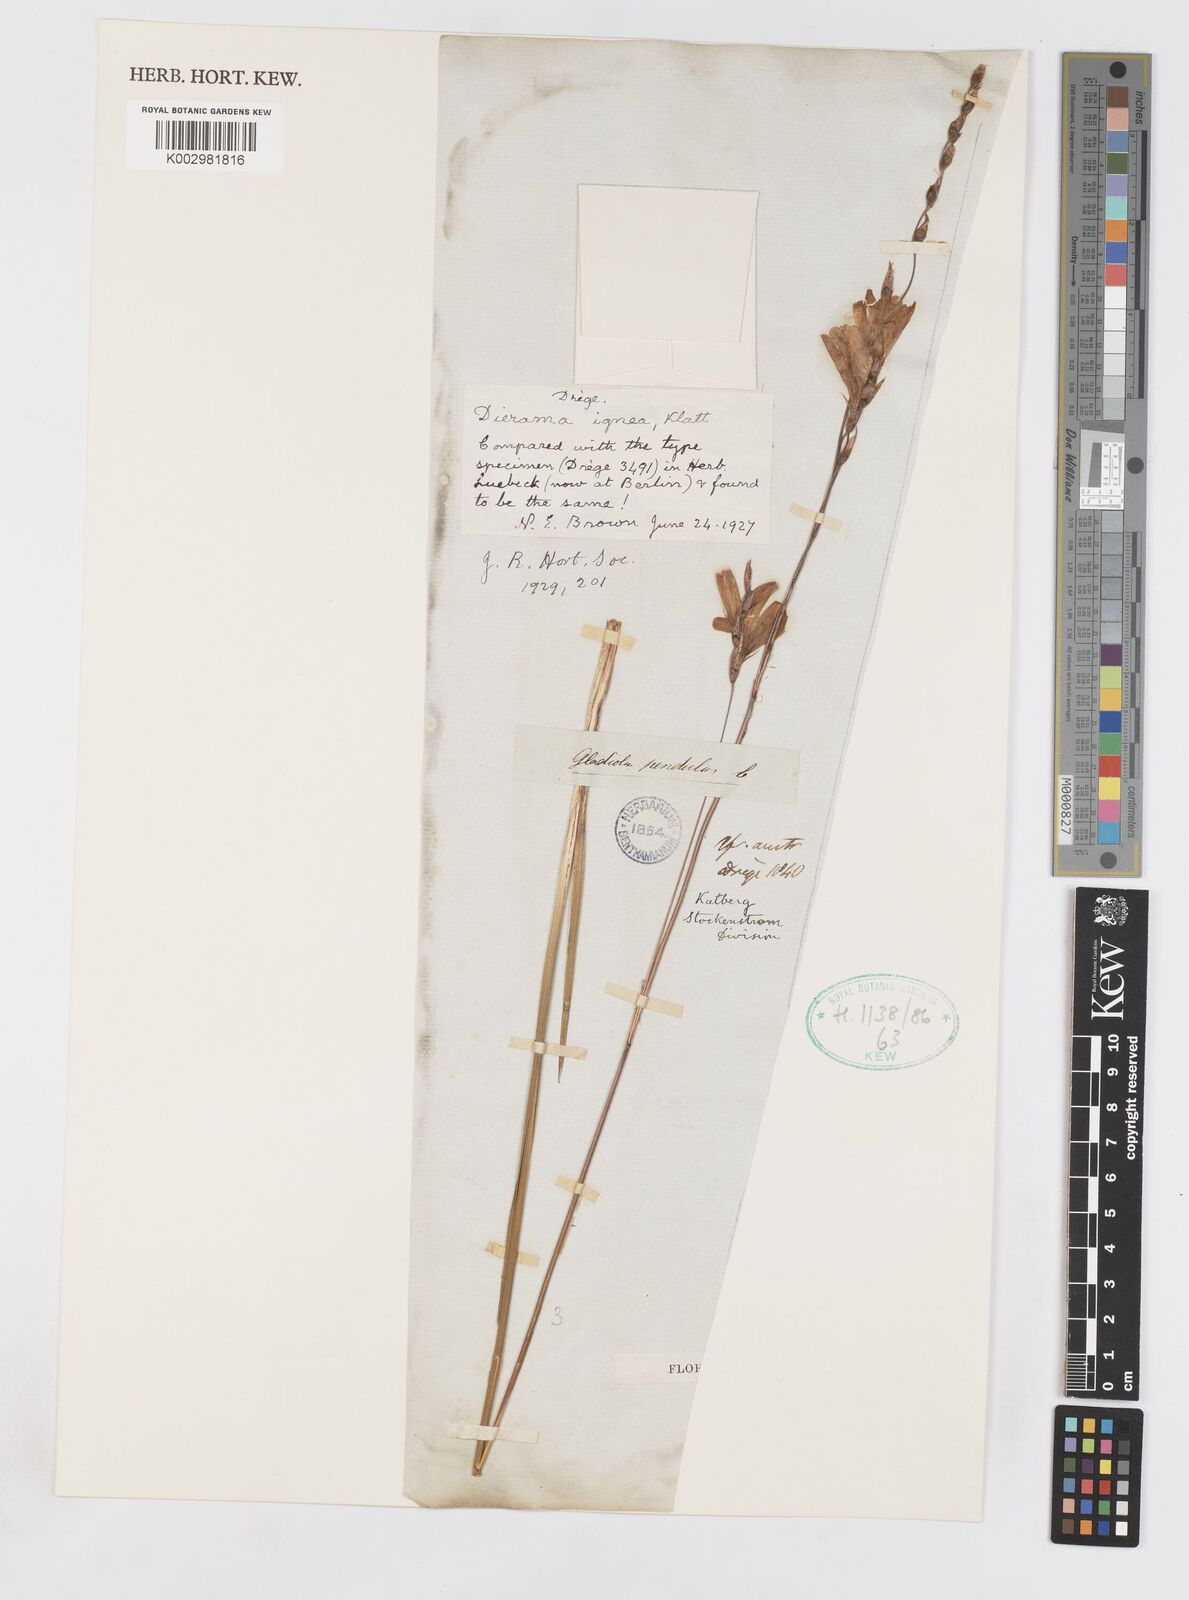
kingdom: Plantae
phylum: Tracheophyta
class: Liliopsida
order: Asparagales
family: Iridaceae
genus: Dierama
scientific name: Dierama igneum
